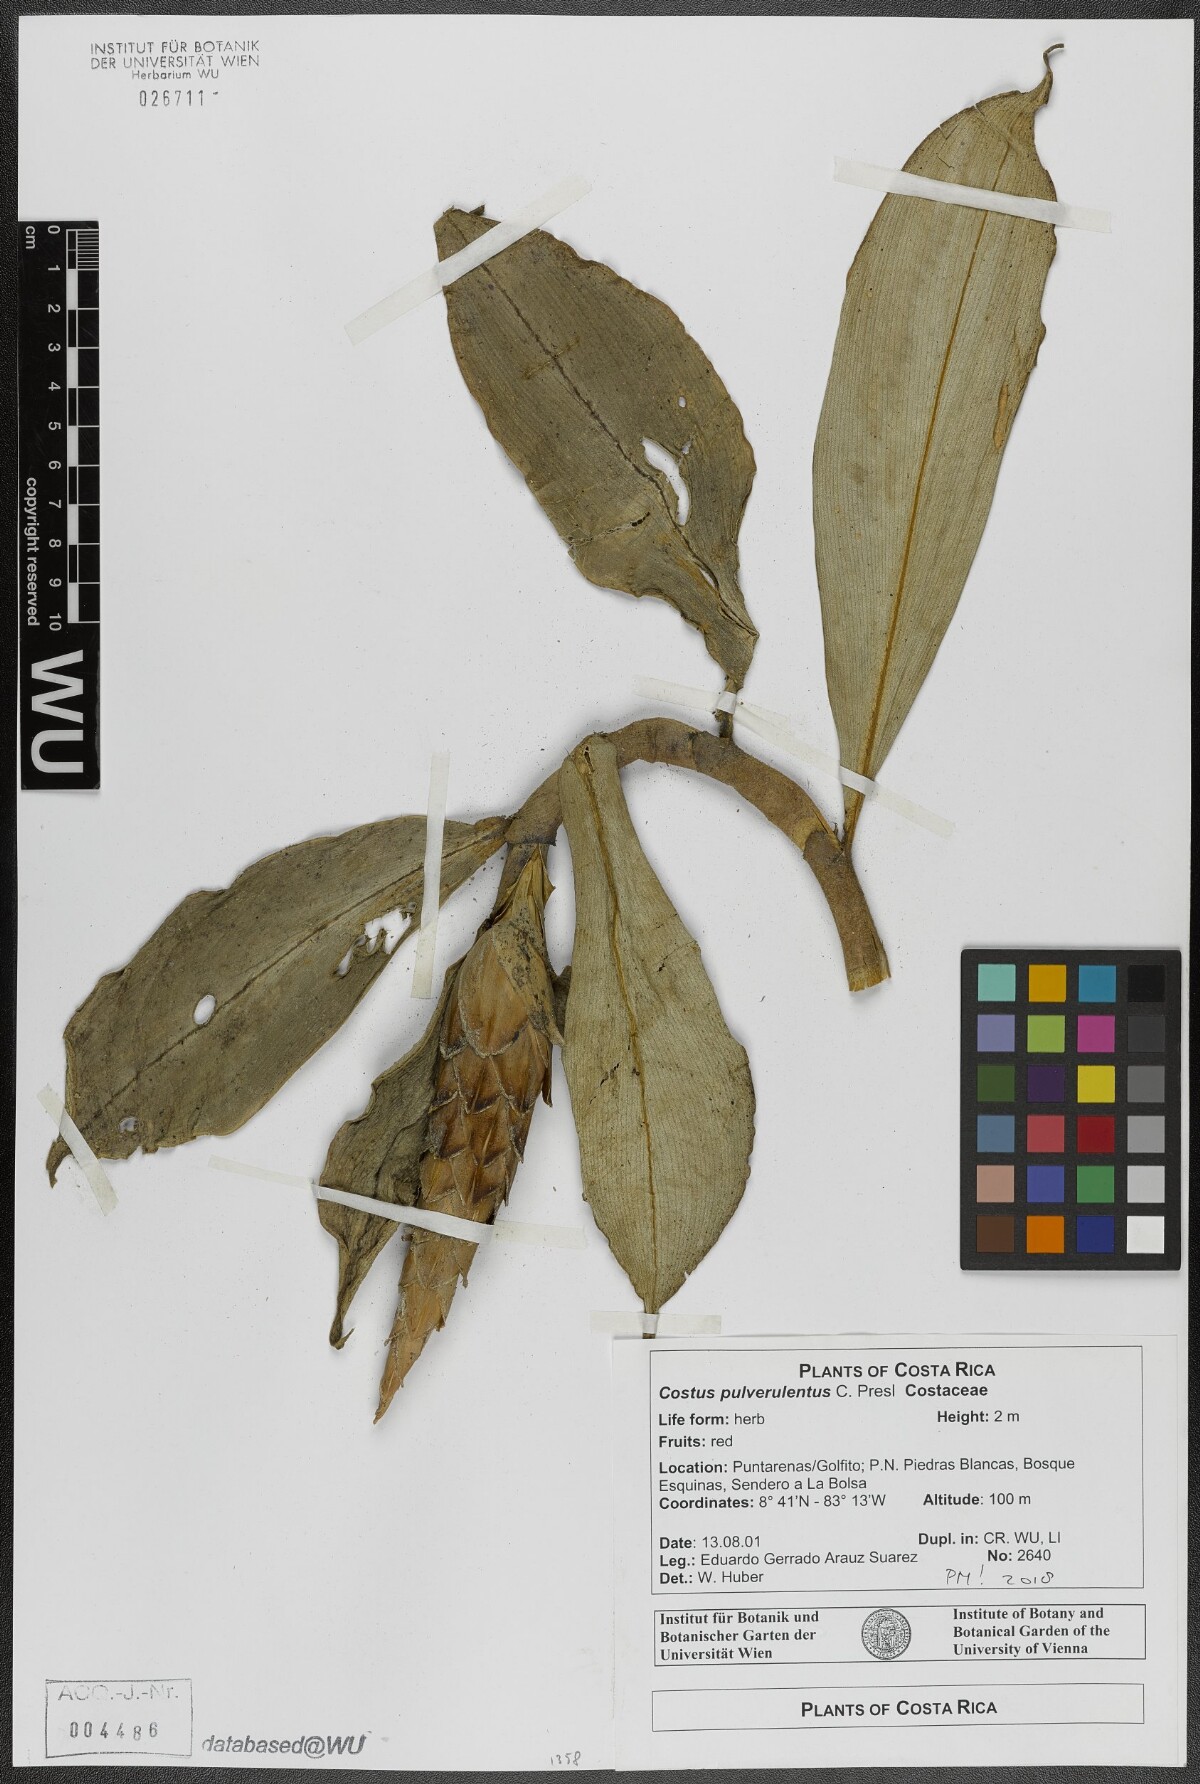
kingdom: Plantae
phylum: Tracheophyta
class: Liliopsida
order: Zingiberales
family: Costaceae
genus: Costus
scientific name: Costus pulverulentus
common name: Spiral ginger
